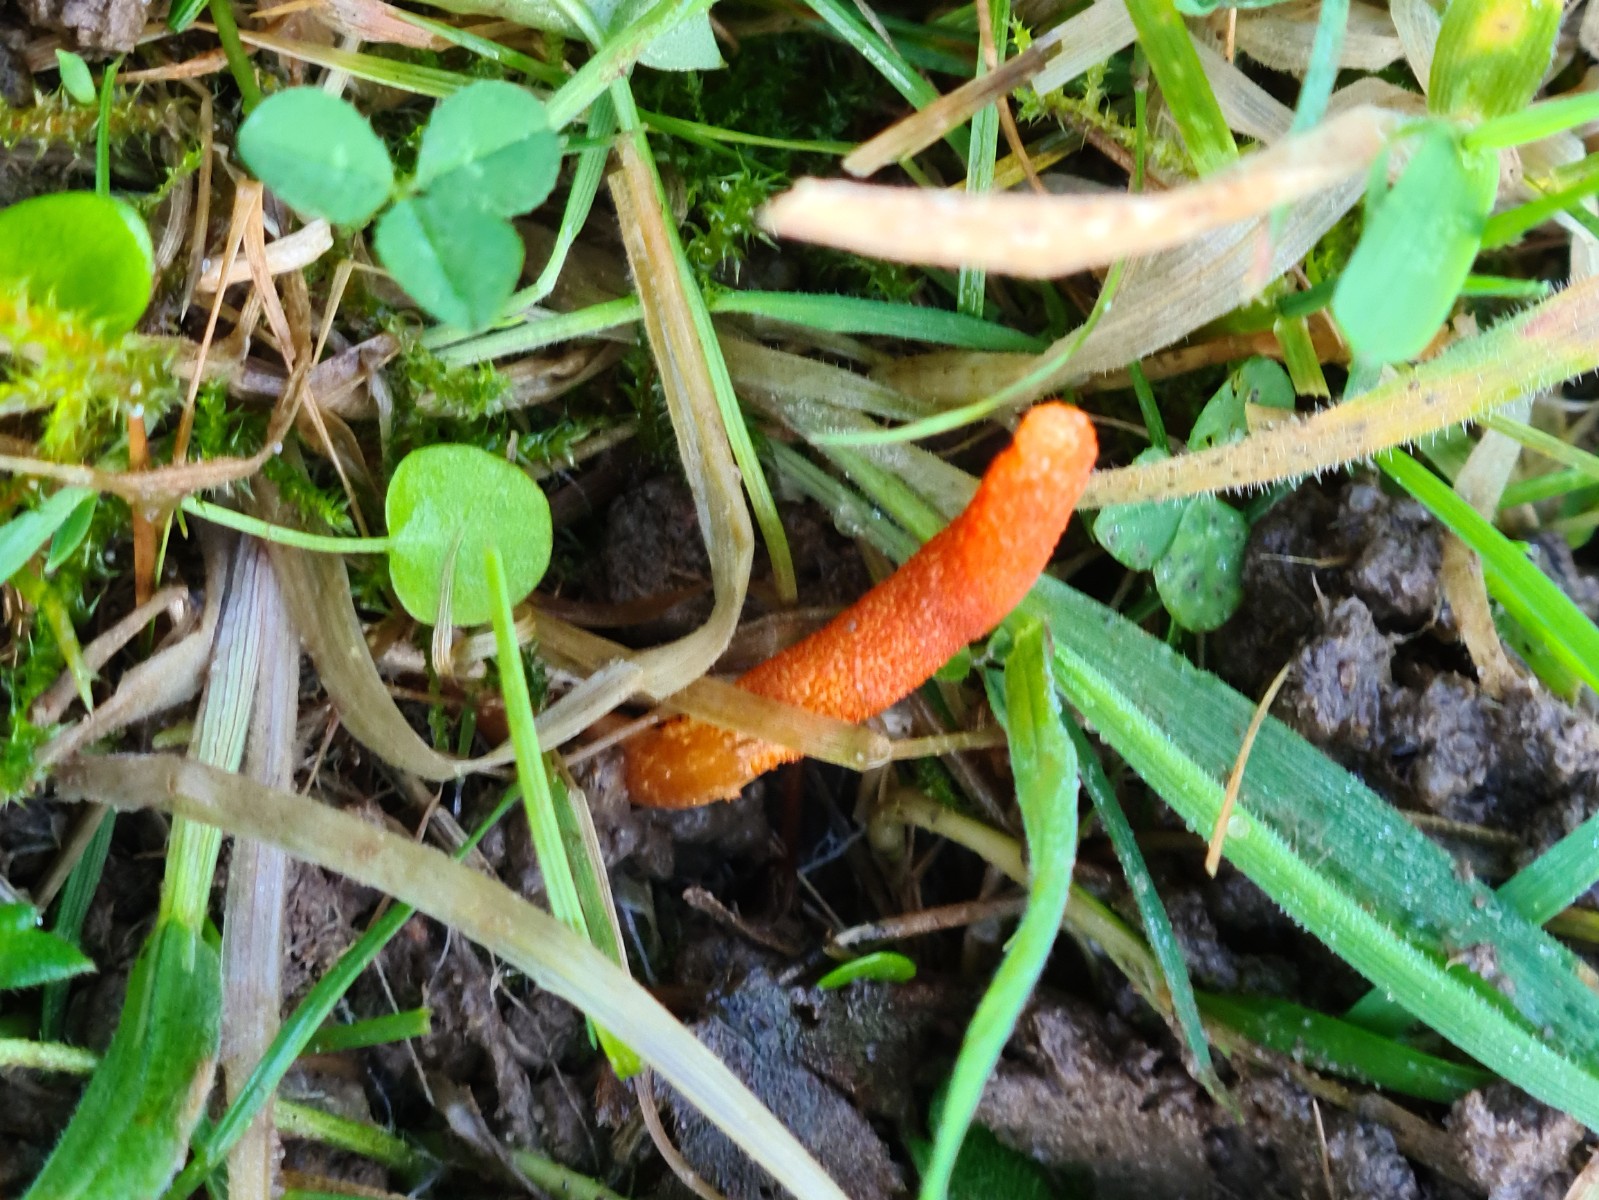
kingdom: Fungi
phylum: Ascomycota
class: Sordariomycetes
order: Hypocreales
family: Cordycipitaceae
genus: Cordyceps
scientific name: Cordyceps militaris
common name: puppe-snyltekølle
